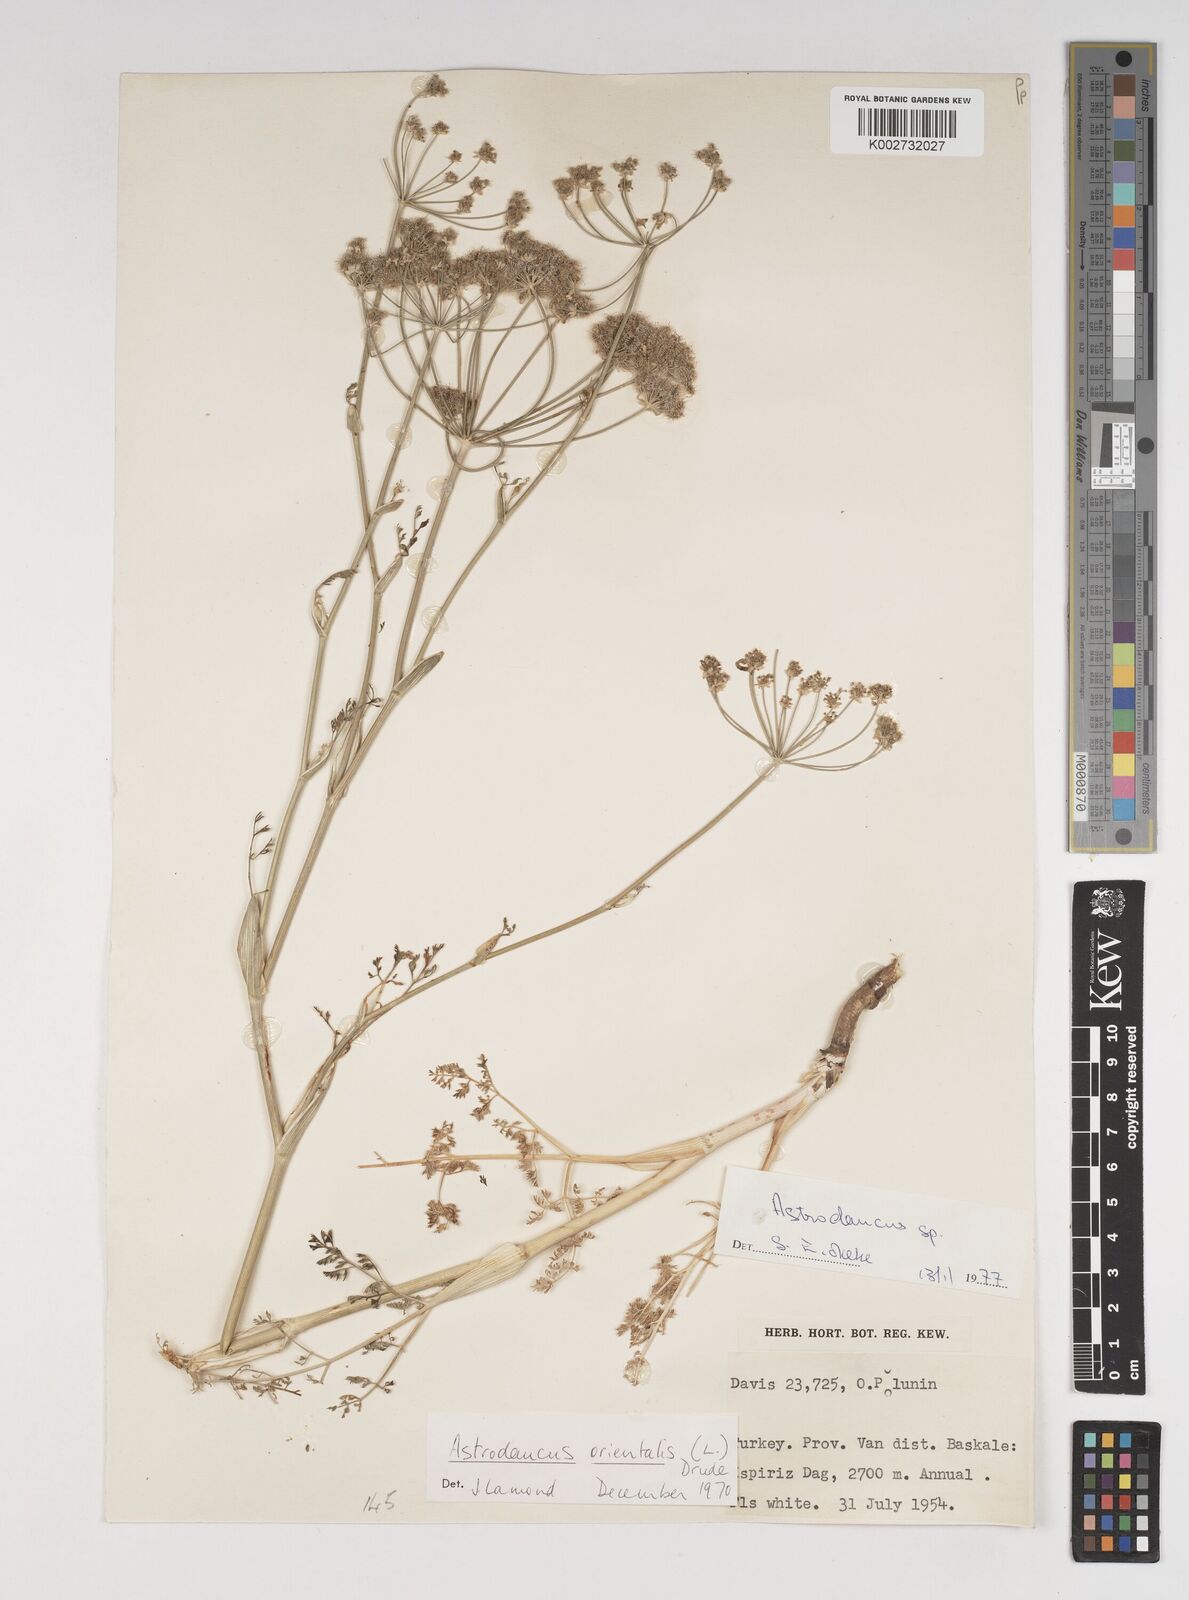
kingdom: Plantae
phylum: Tracheophyta
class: Magnoliopsida
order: Apiales
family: Apiaceae
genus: Astrodaucus
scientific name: Astrodaucus
